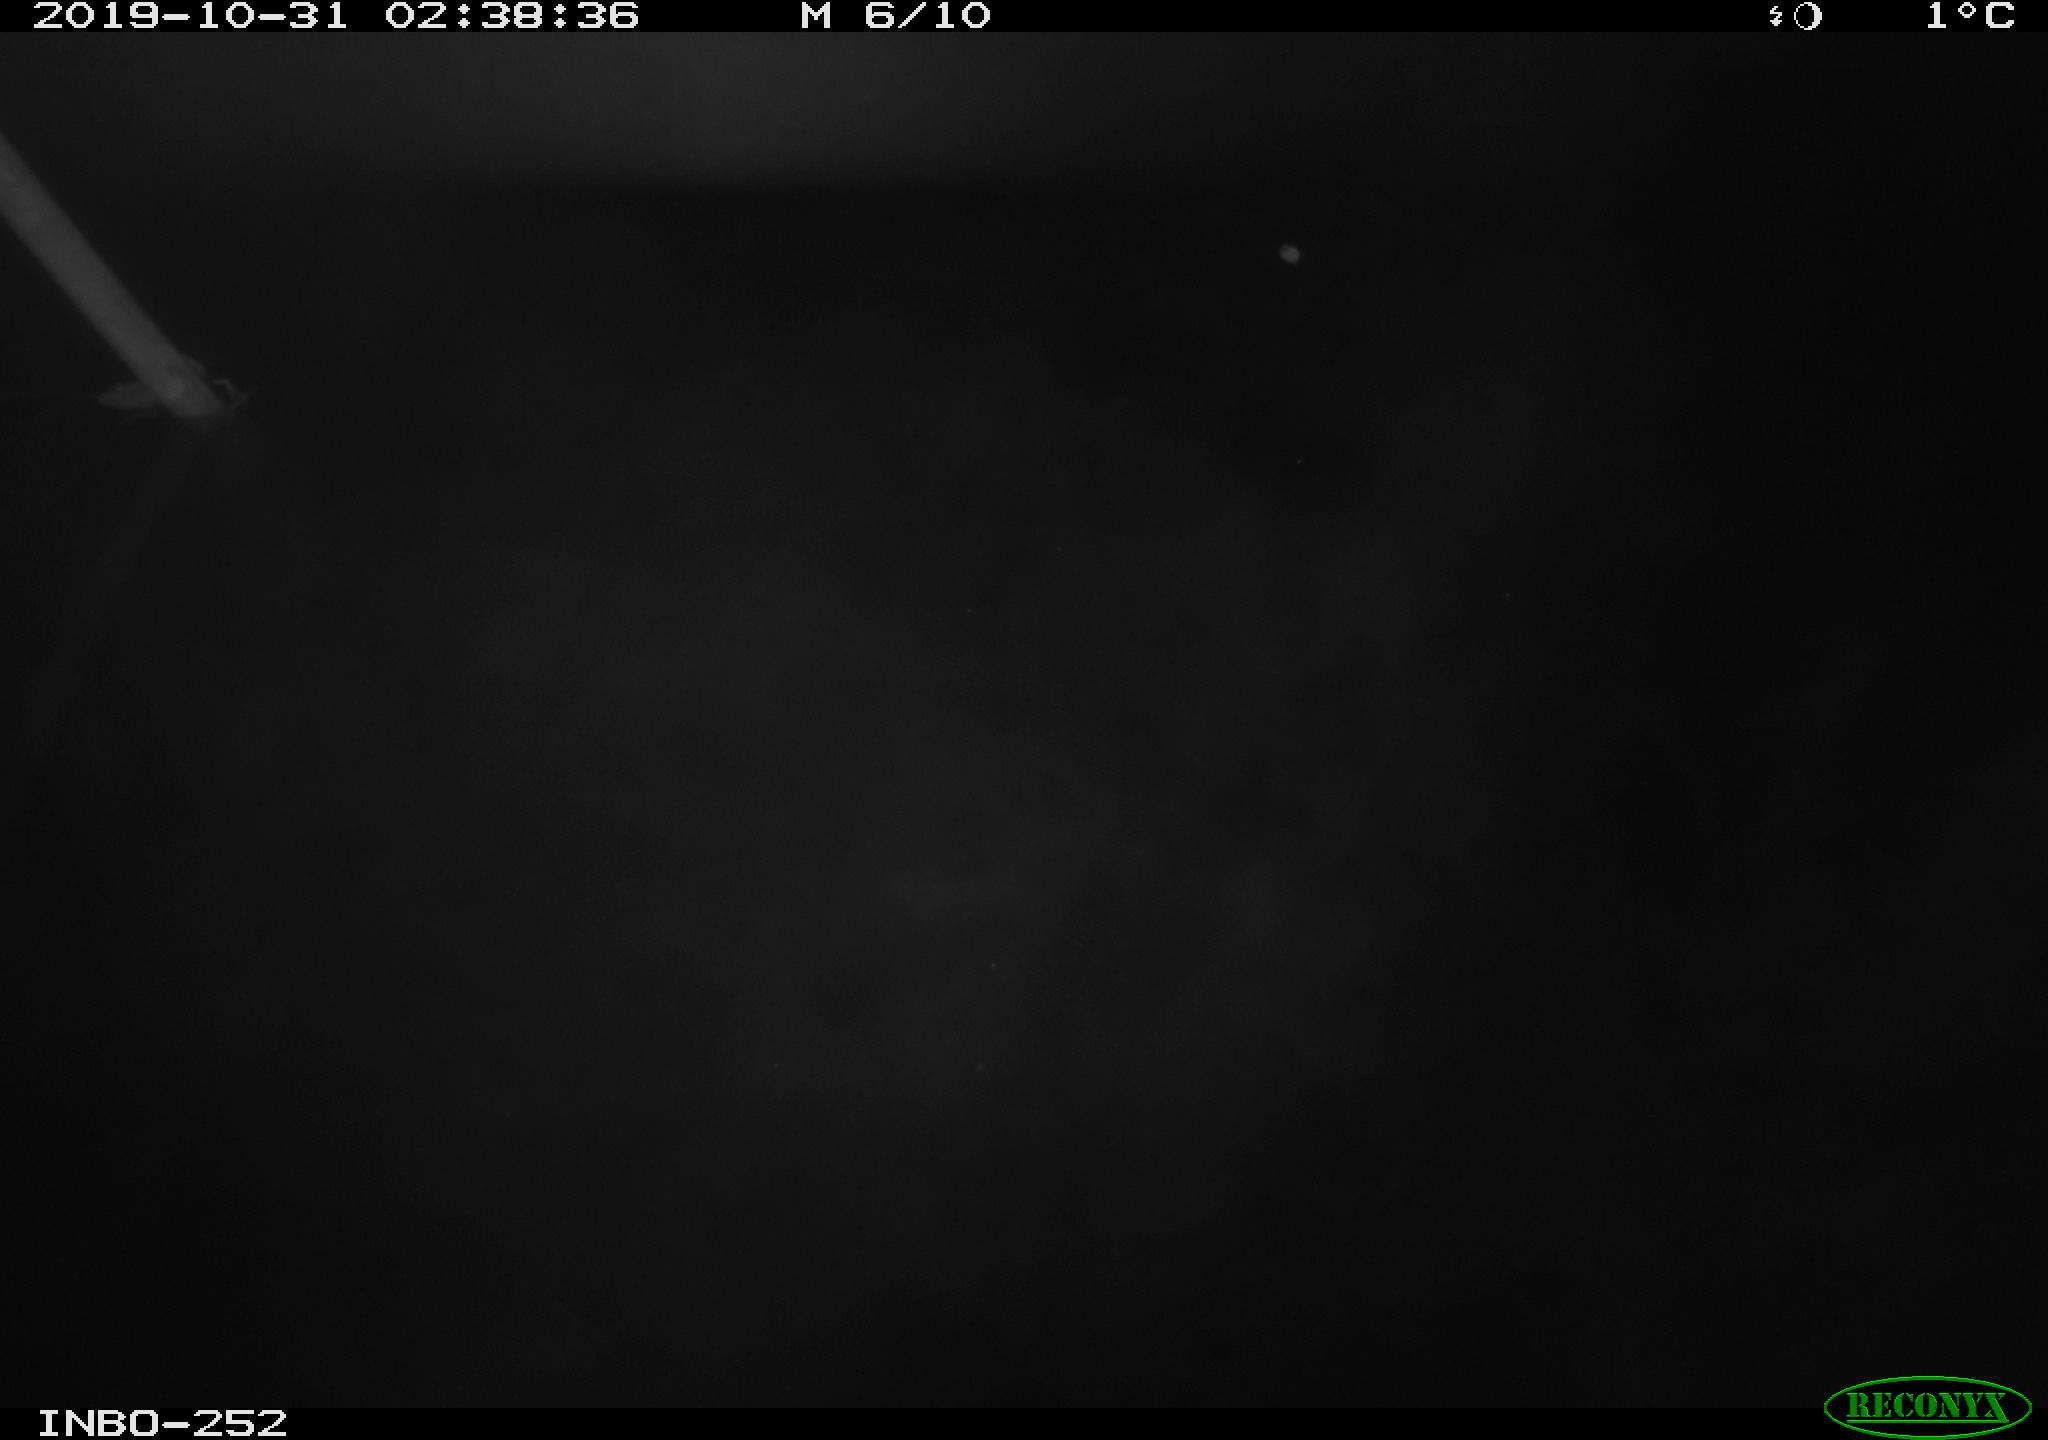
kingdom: Animalia
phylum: Chordata
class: Aves
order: Anseriformes
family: Anatidae
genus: Anas
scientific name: Anas platyrhynchos
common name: Mallard
